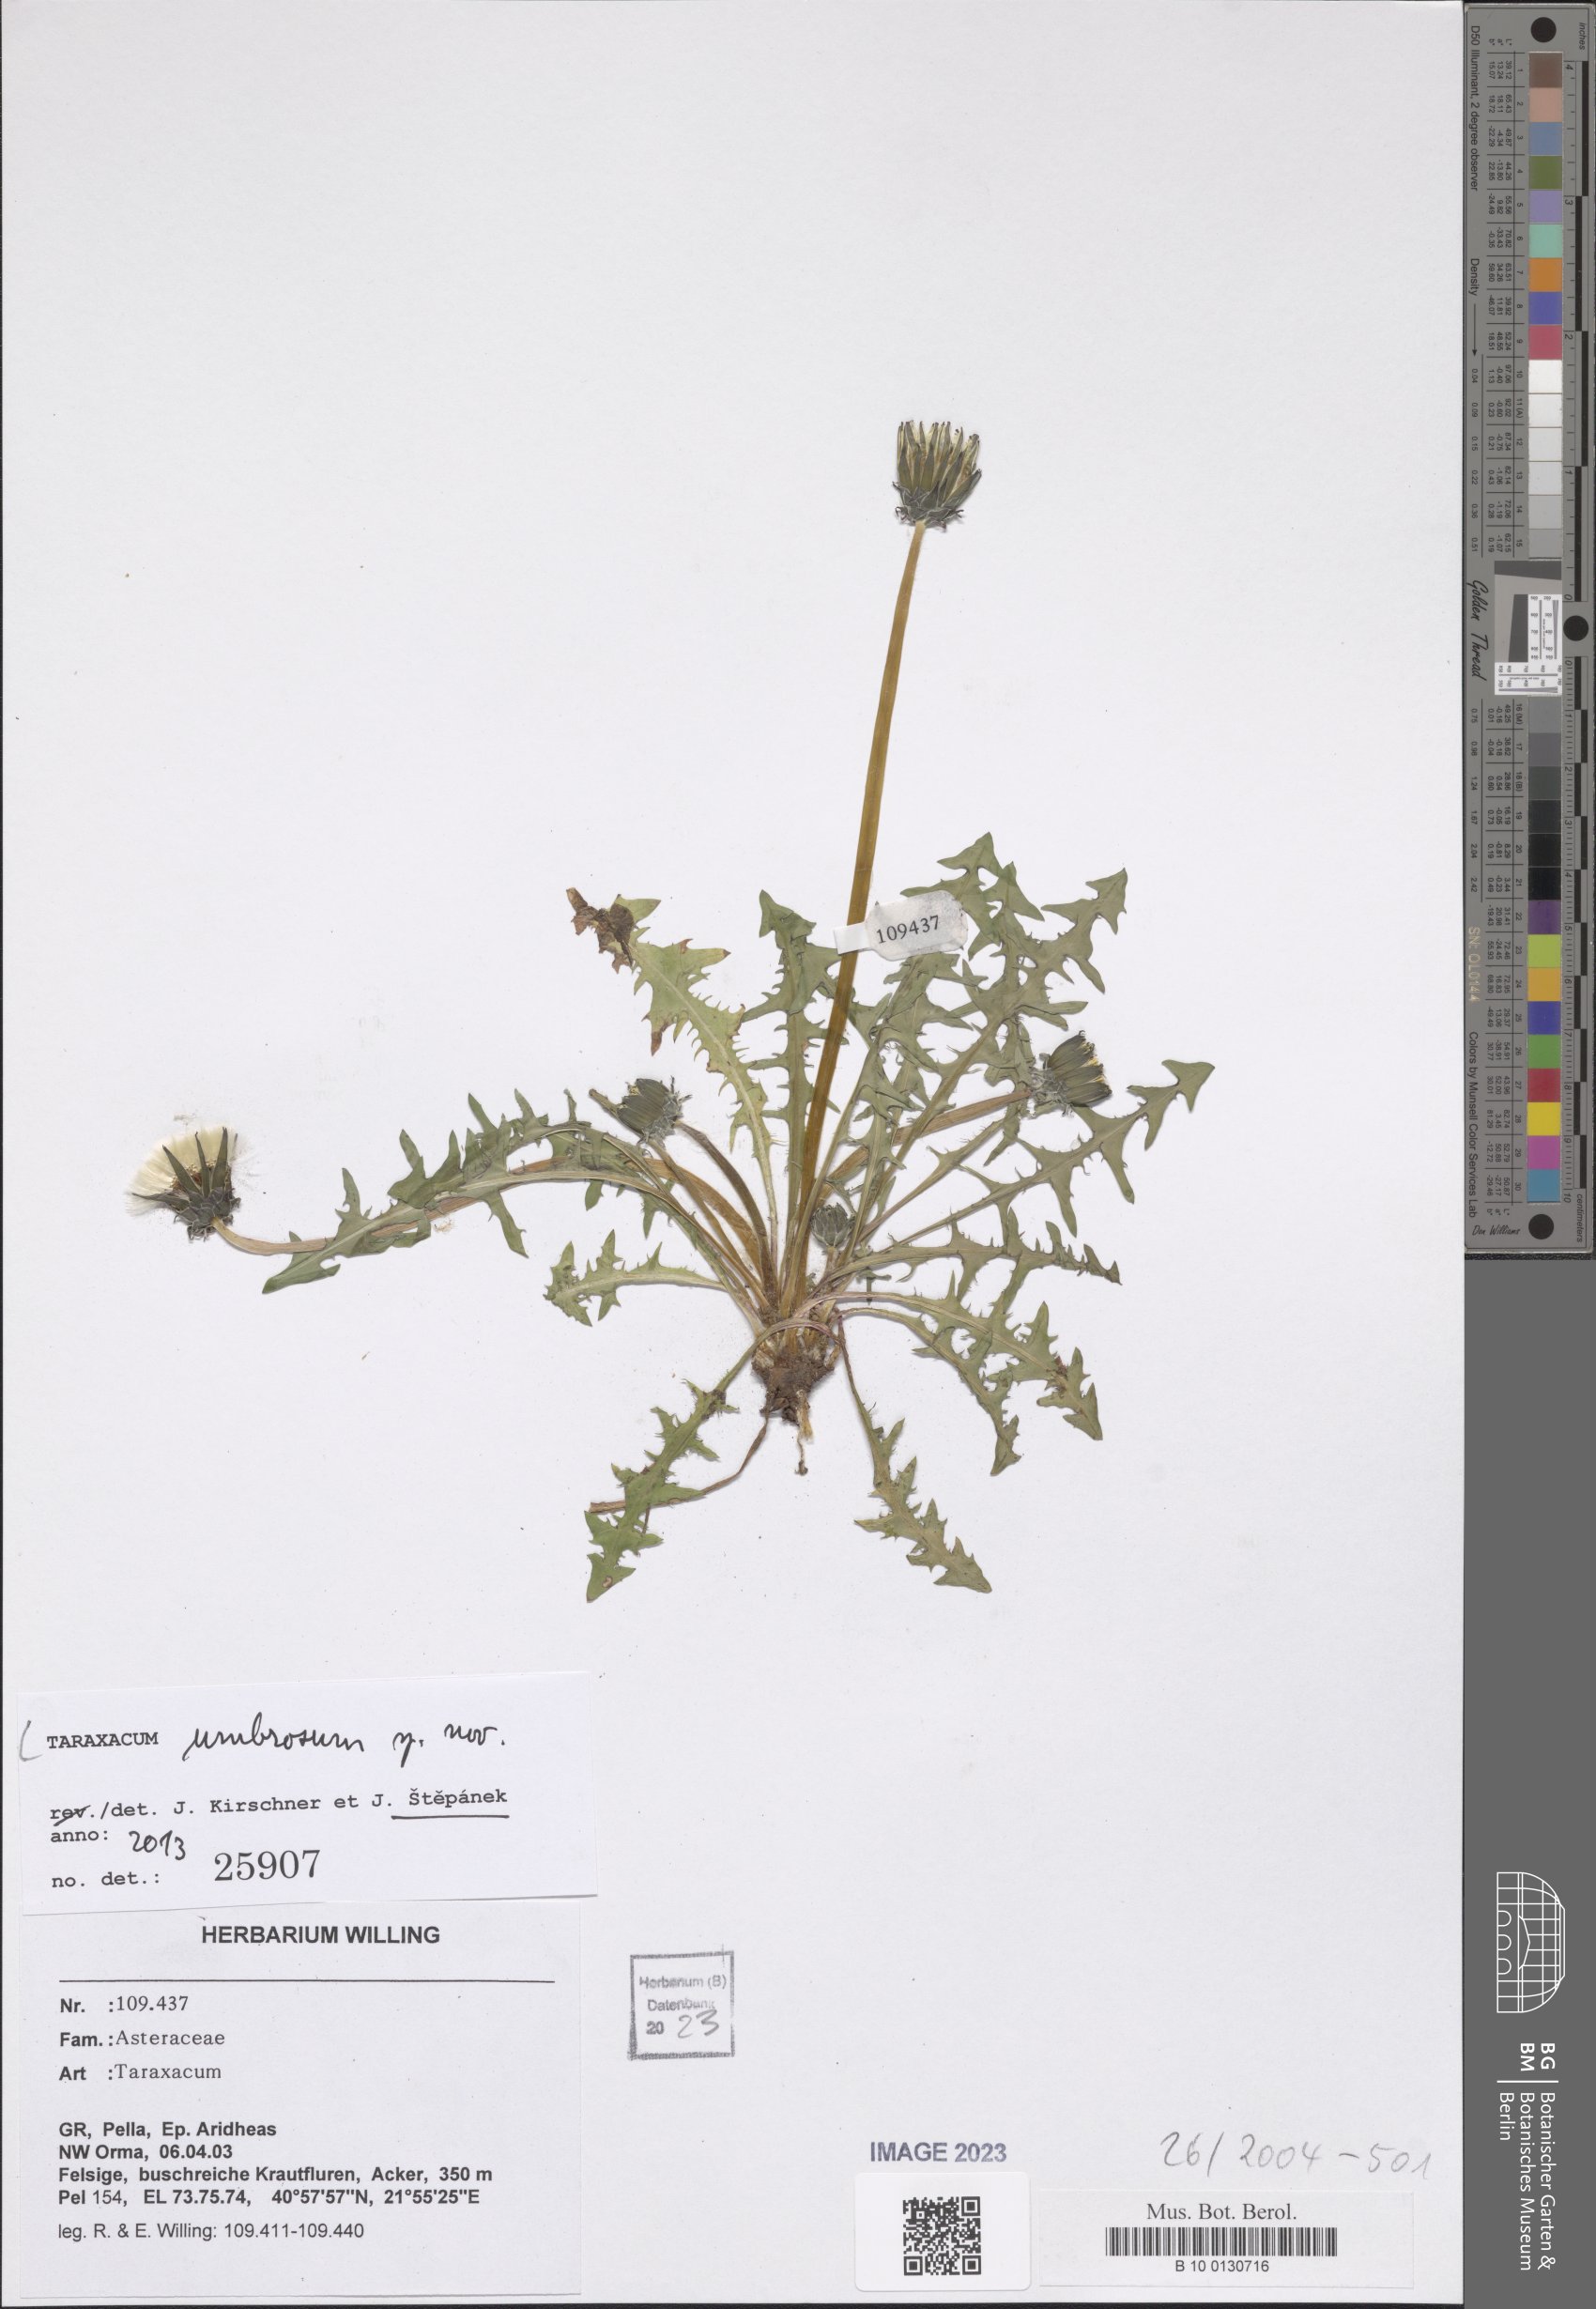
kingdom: Plantae
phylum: Tracheophyta
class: Magnoliopsida
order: Asterales
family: Asteraceae
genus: Taraxacum
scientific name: Taraxacum umbrosum
